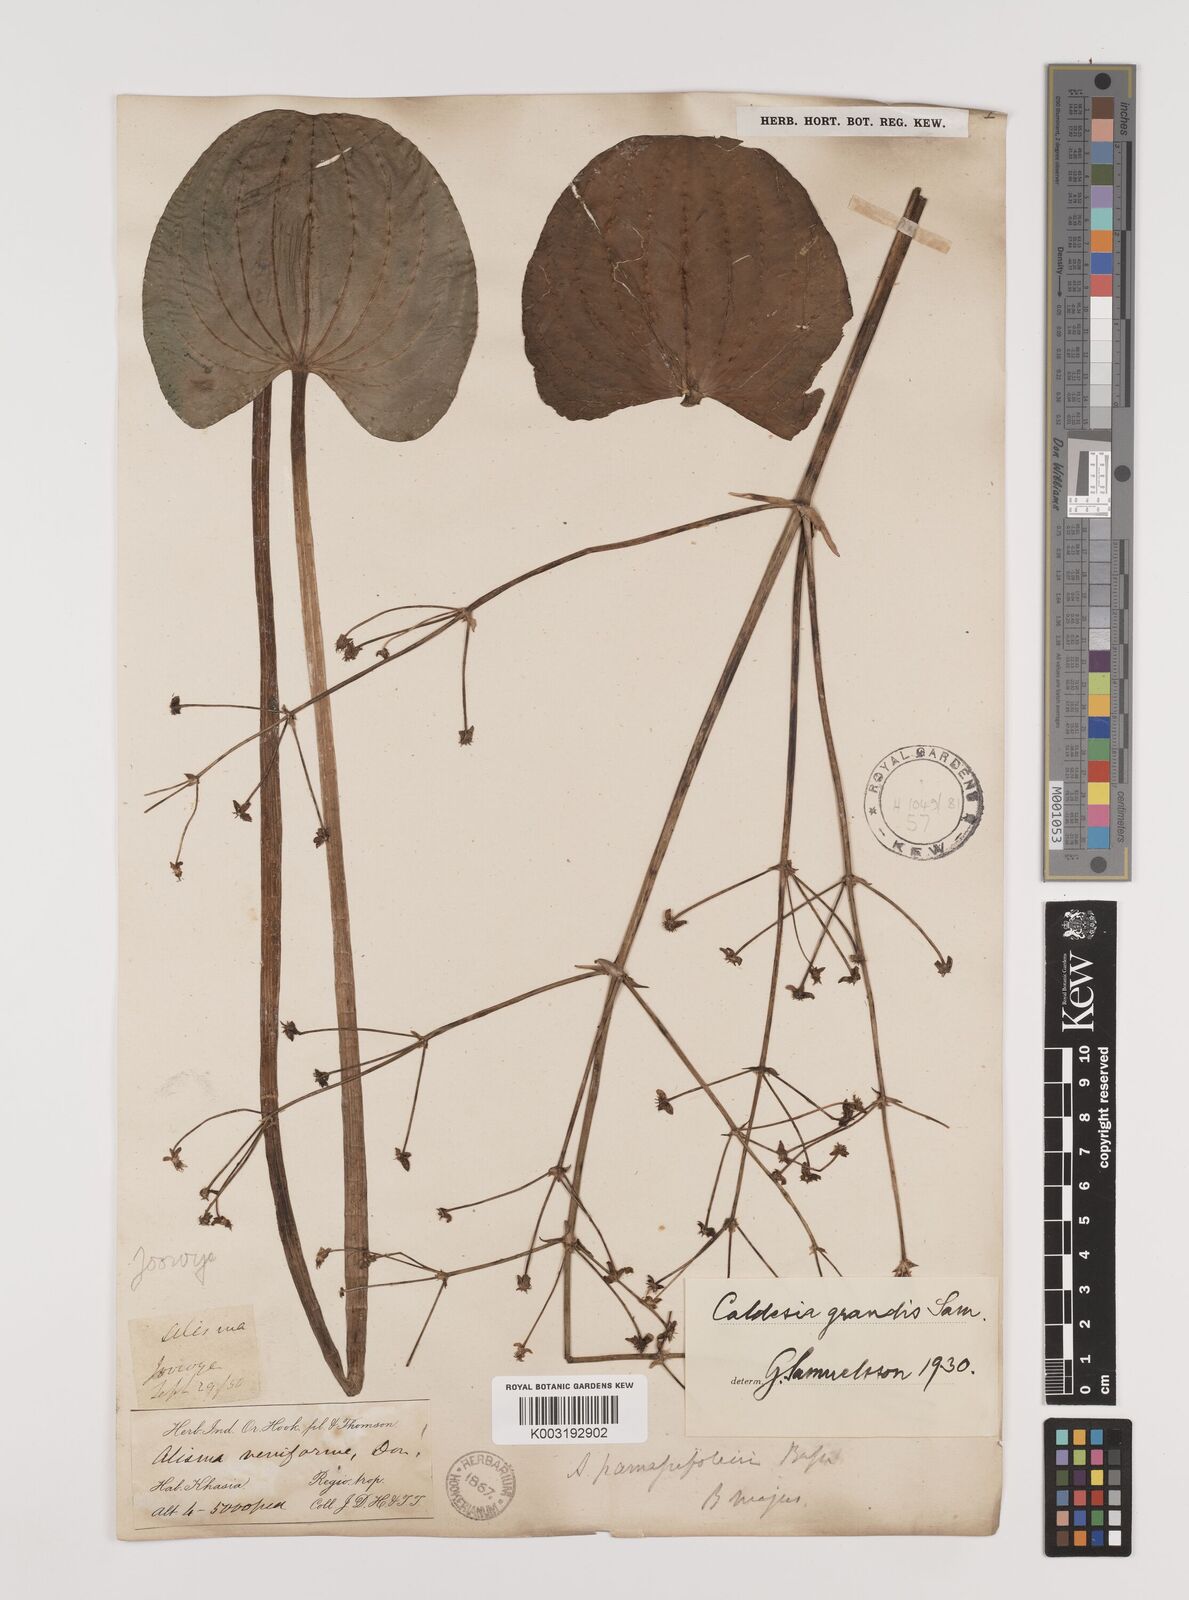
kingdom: Plantae
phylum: Tracheophyta
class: Liliopsida
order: Alismatales
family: Alismataceae
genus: Caldesia
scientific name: Caldesia grandis
